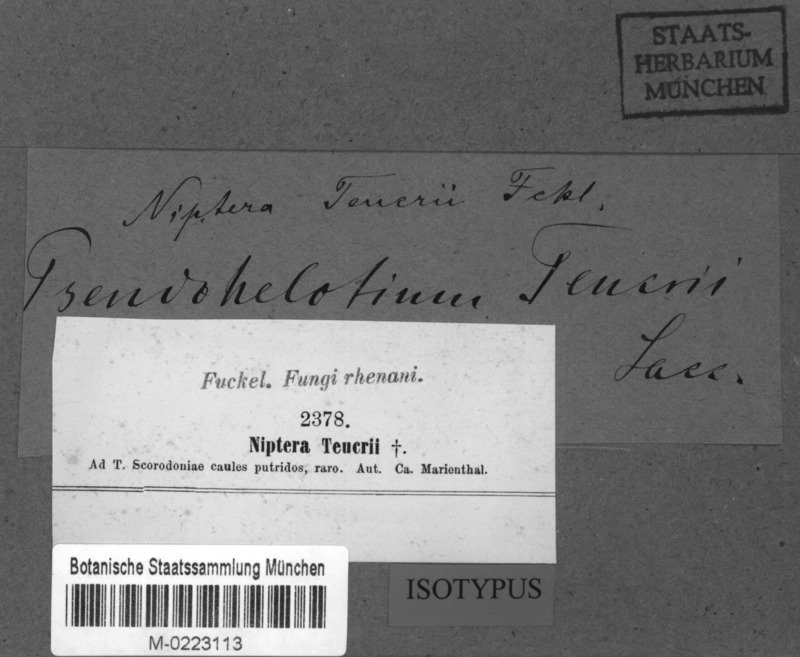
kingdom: Fungi
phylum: Ascomycota
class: Leotiomycetes
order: Helotiales
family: Mollisiaceae
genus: Mollisia
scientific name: Mollisia teucrii
